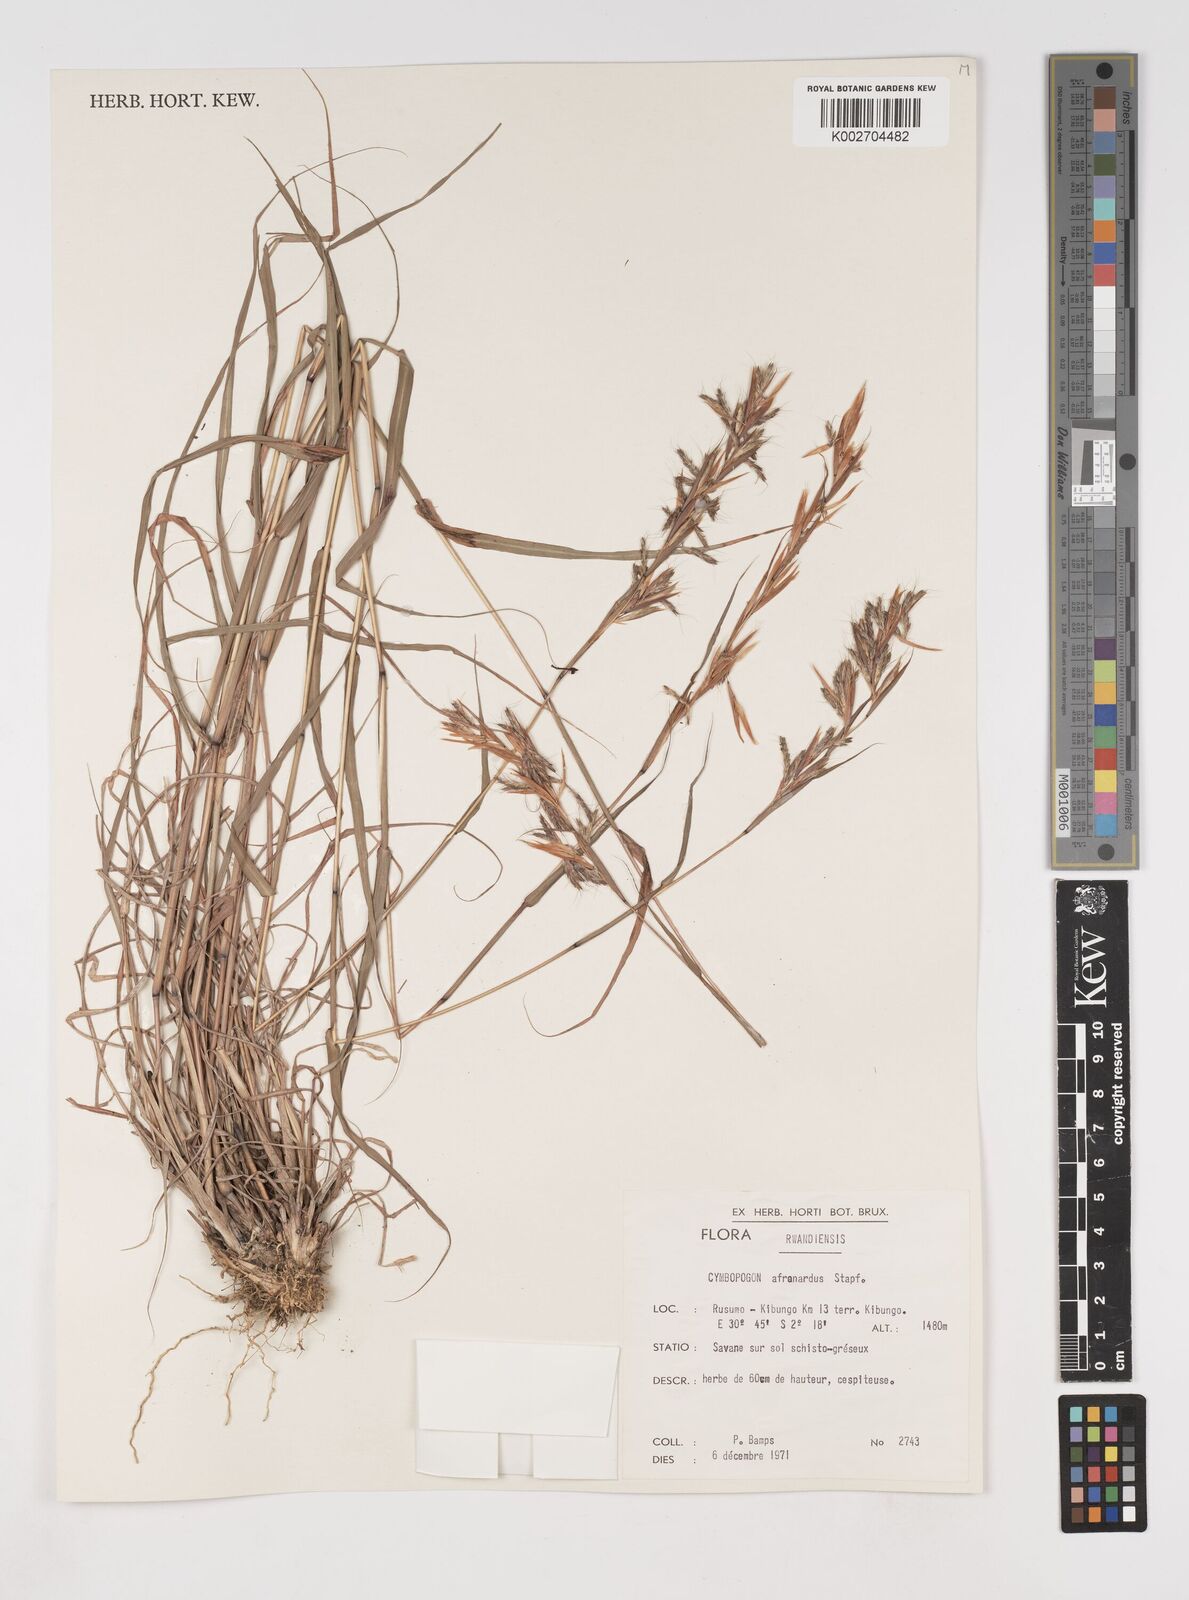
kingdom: Plantae
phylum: Tracheophyta
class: Liliopsida
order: Poales
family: Poaceae
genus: Cymbopogon
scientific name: Cymbopogon nardus
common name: Giant turpentine grass
